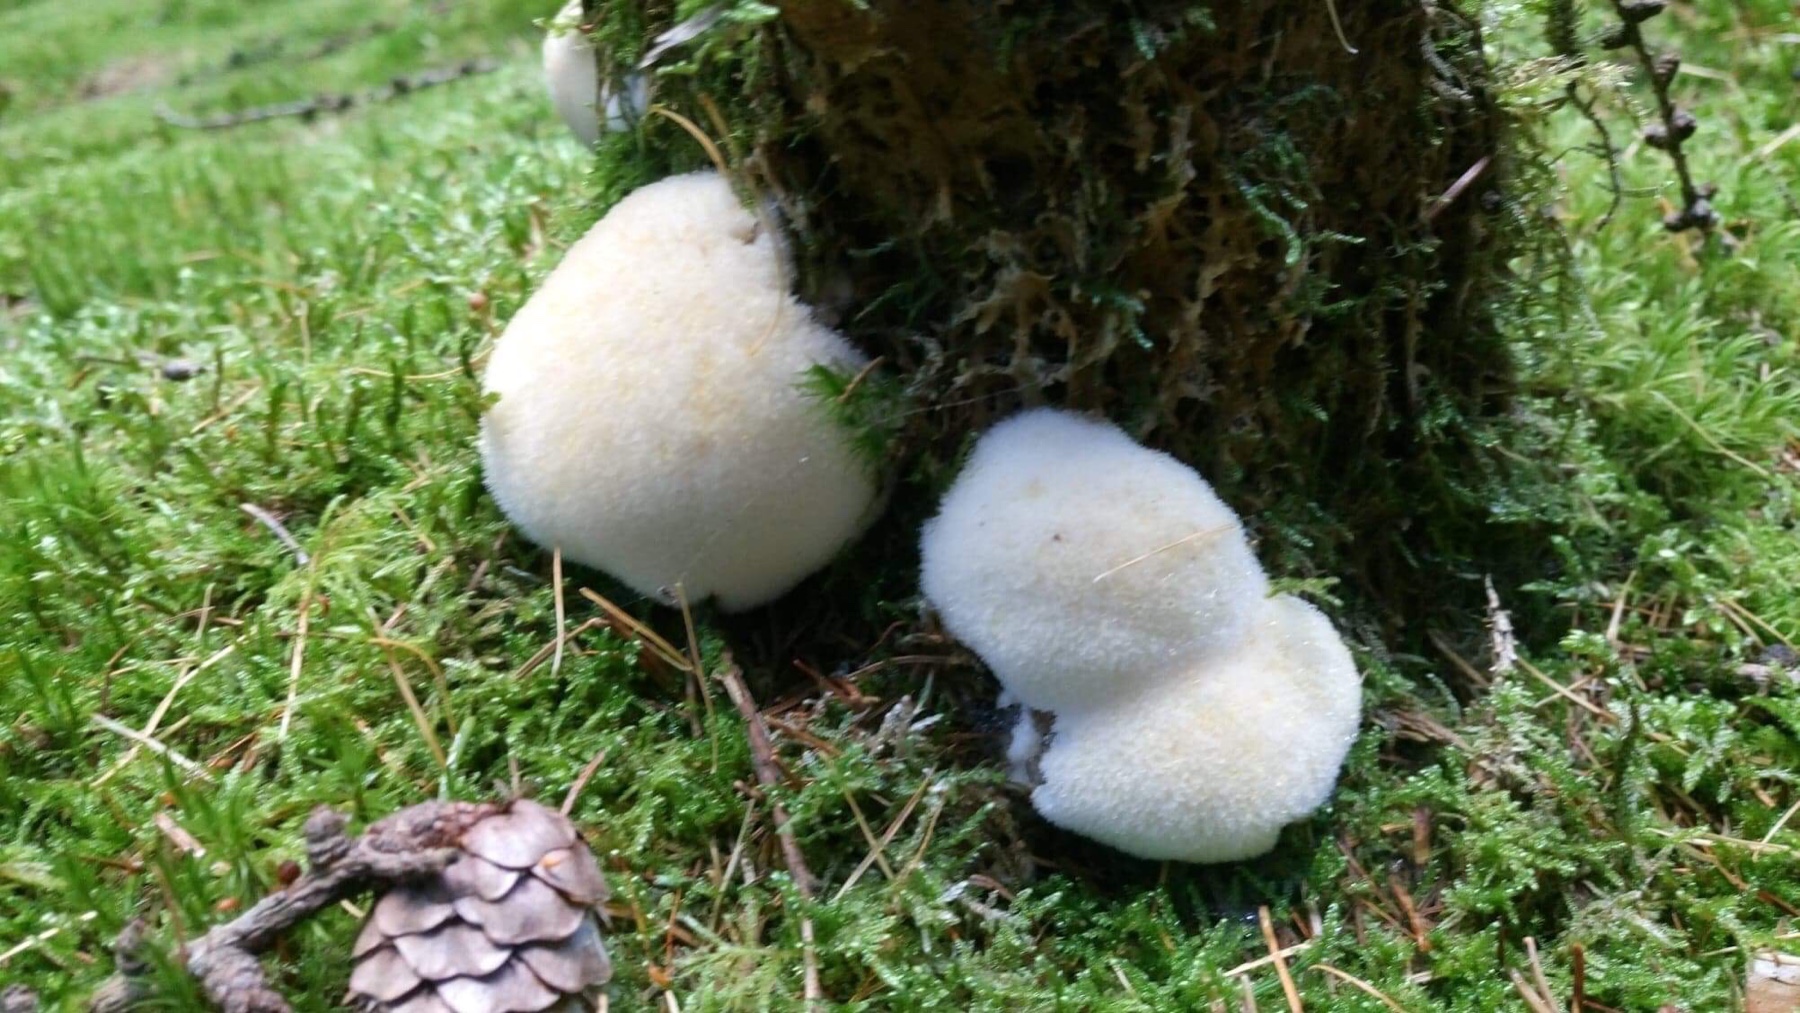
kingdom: Fungi
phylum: Basidiomycota
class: Agaricomycetes
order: Polyporales
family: Dacryobolaceae
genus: Postia
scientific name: Postia ptychogaster
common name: støvende kødporesvamp
